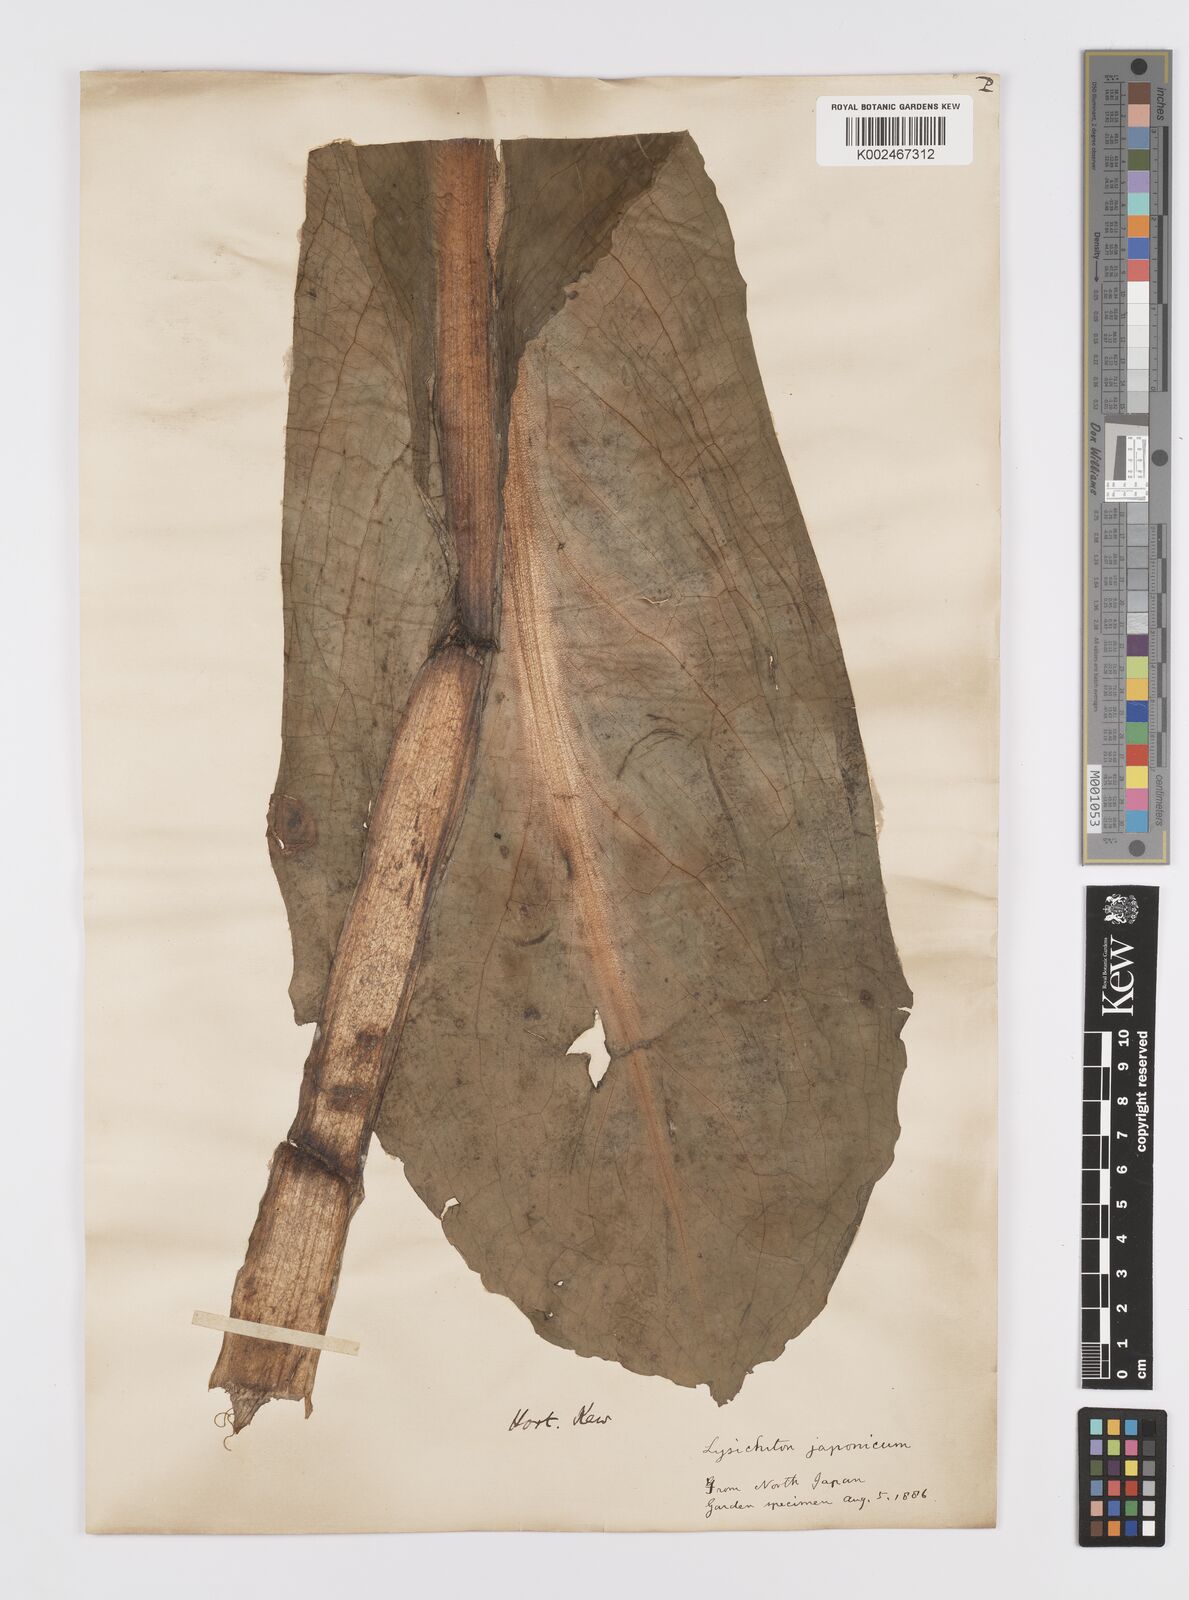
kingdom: Plantae
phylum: Tracheophyta
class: Liliopsida
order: Alismatales
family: Araceae
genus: Lysichiton
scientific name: Lysichiton camtschatcensis
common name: Asian skunk-cabbage
